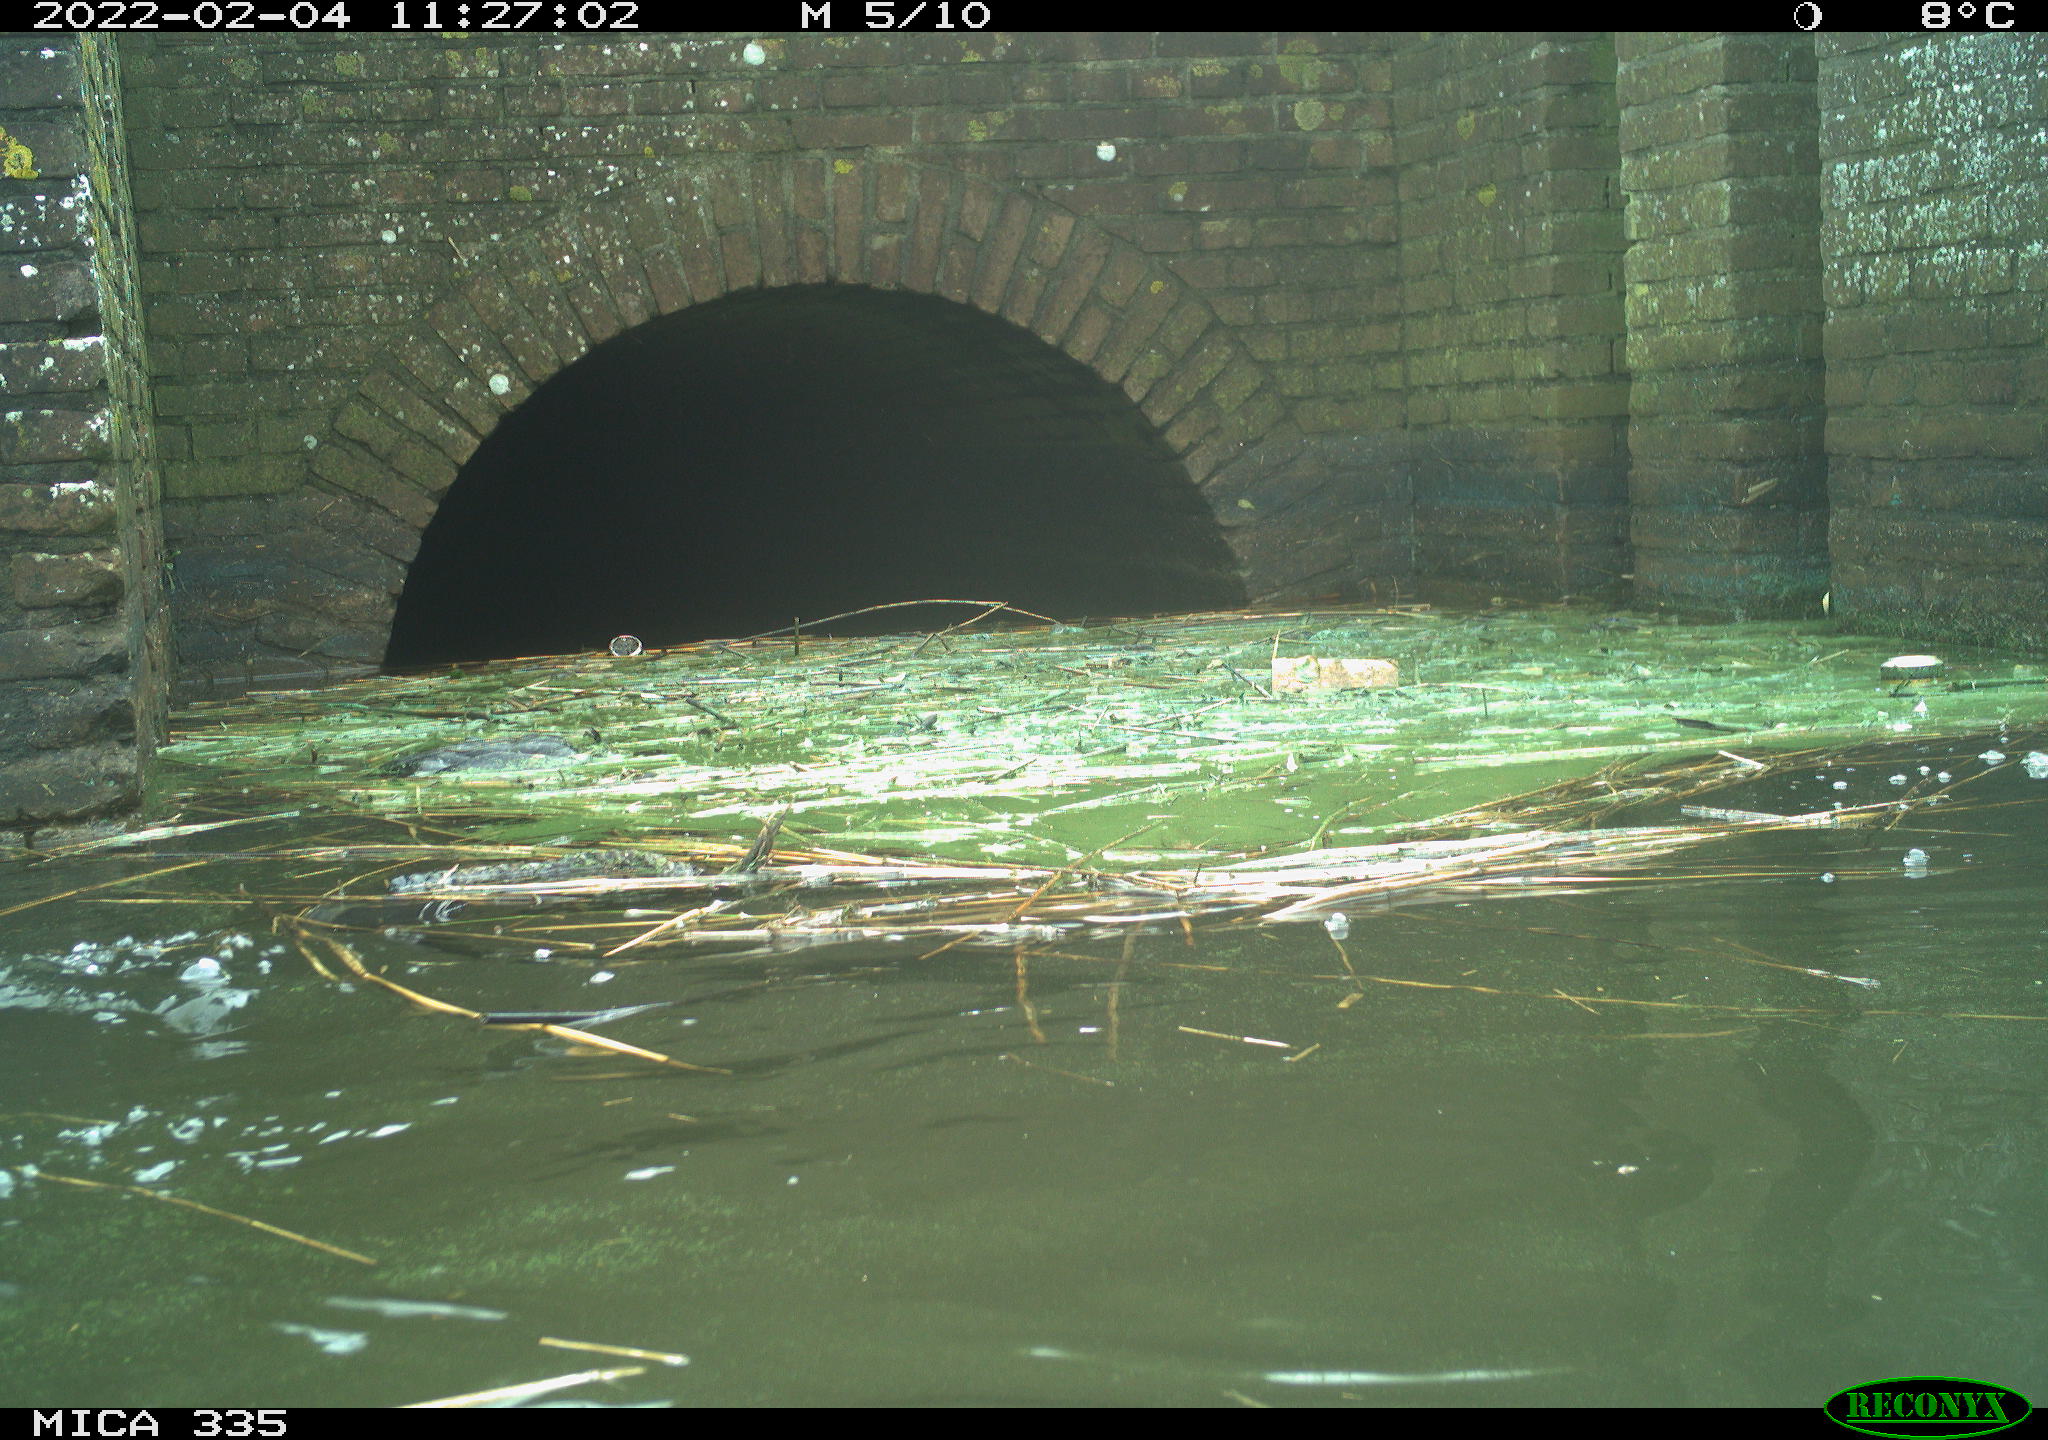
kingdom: Animalia
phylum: Chordata
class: Aves
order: Suliformes
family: Phalacrocoracidae
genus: Phalacrocorax
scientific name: Phalacrocorax carbo
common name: Great cormorant
